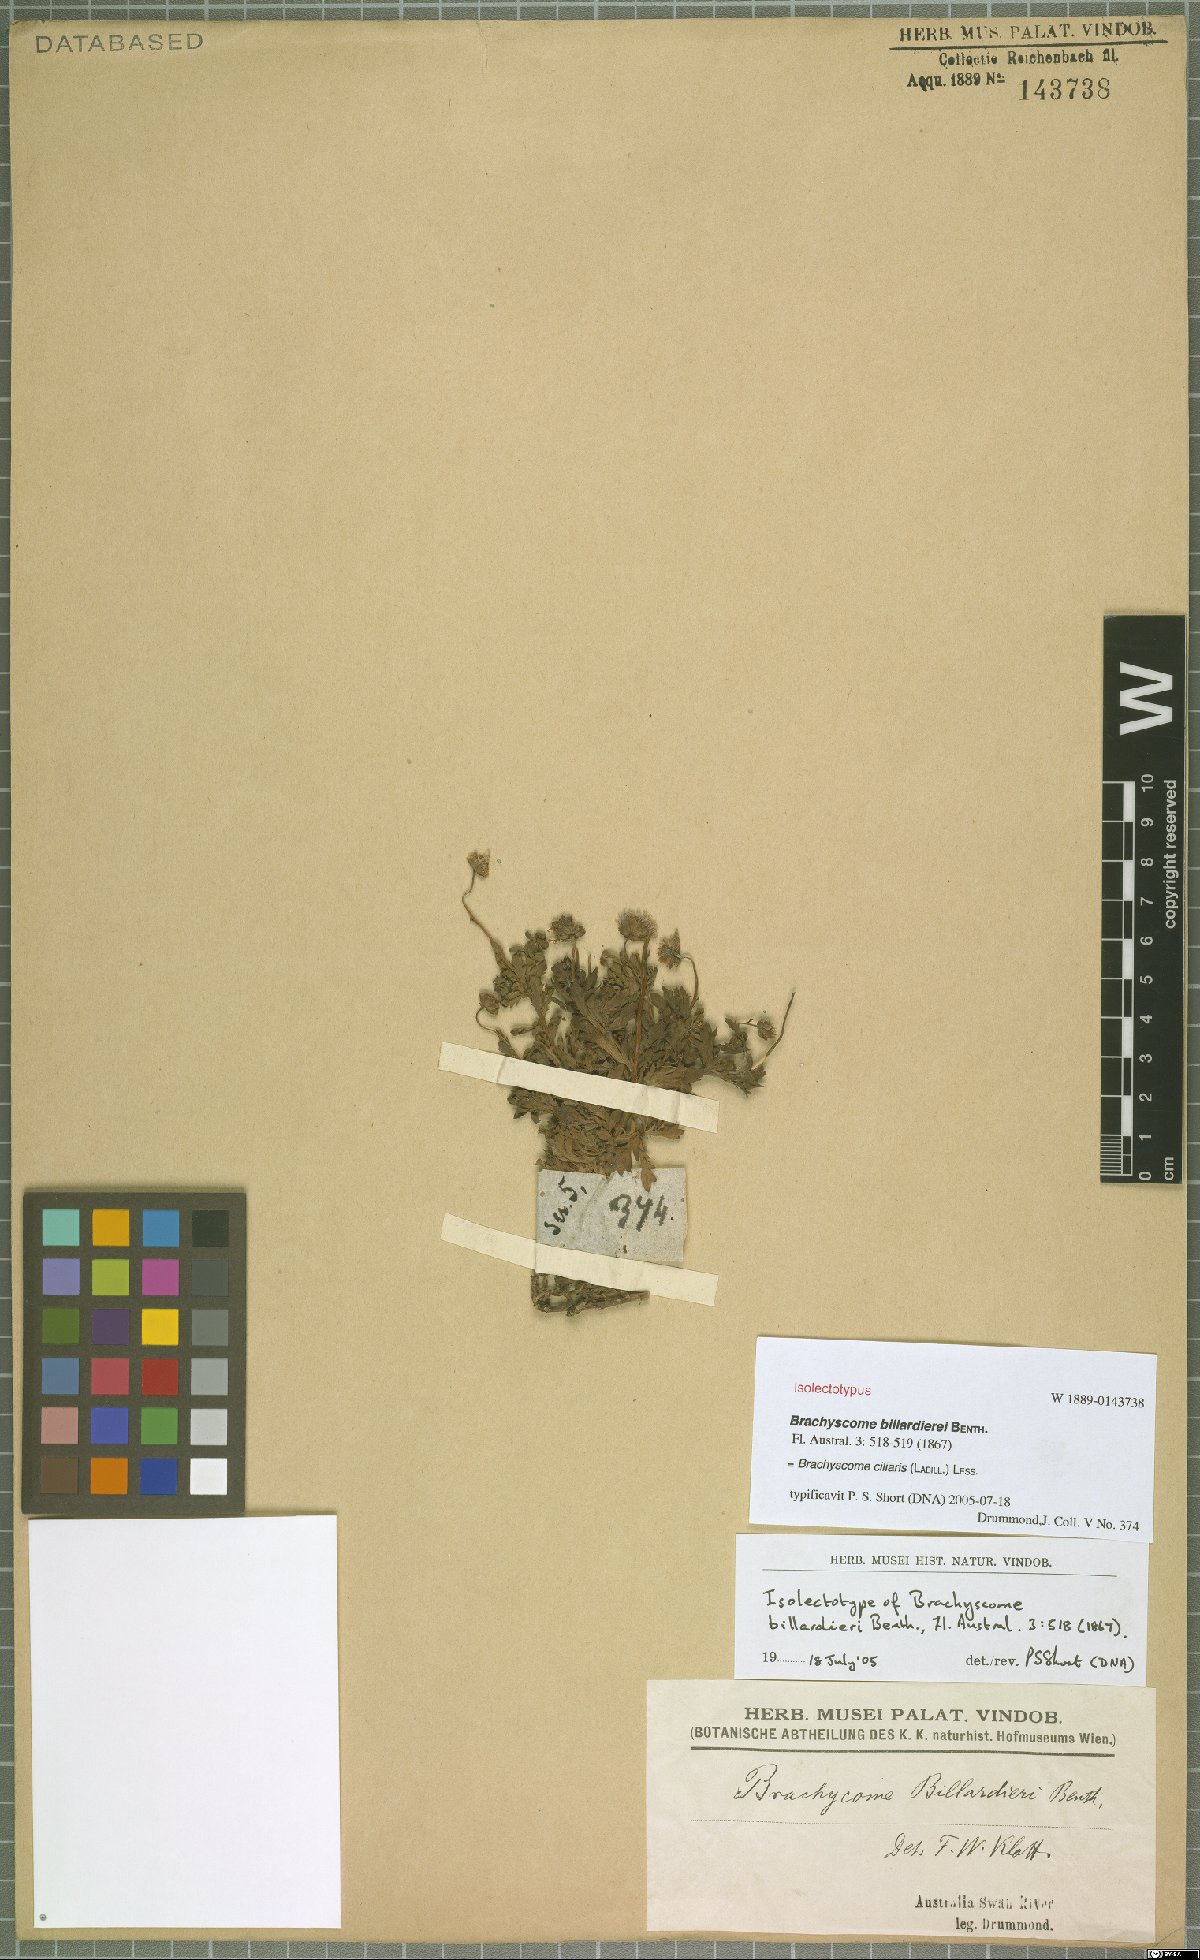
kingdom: Plantae
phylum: Tracheophyta
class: Magnoliopsida
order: Asterales
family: Asteraceae
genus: Brachyscome
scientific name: Brachyscome ciliaris
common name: Variable daisy
